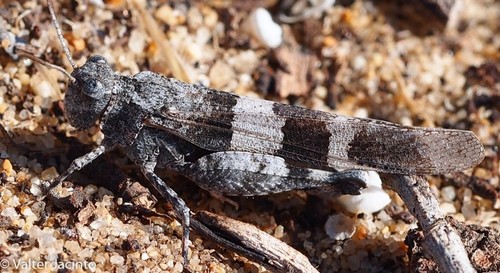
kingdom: Animalia
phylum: Arthropoda
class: Insecta
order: Orthoptera
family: Acrididae
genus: Oedipoda
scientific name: Oedipoda caerulescens
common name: Blue-winged grasshopper
